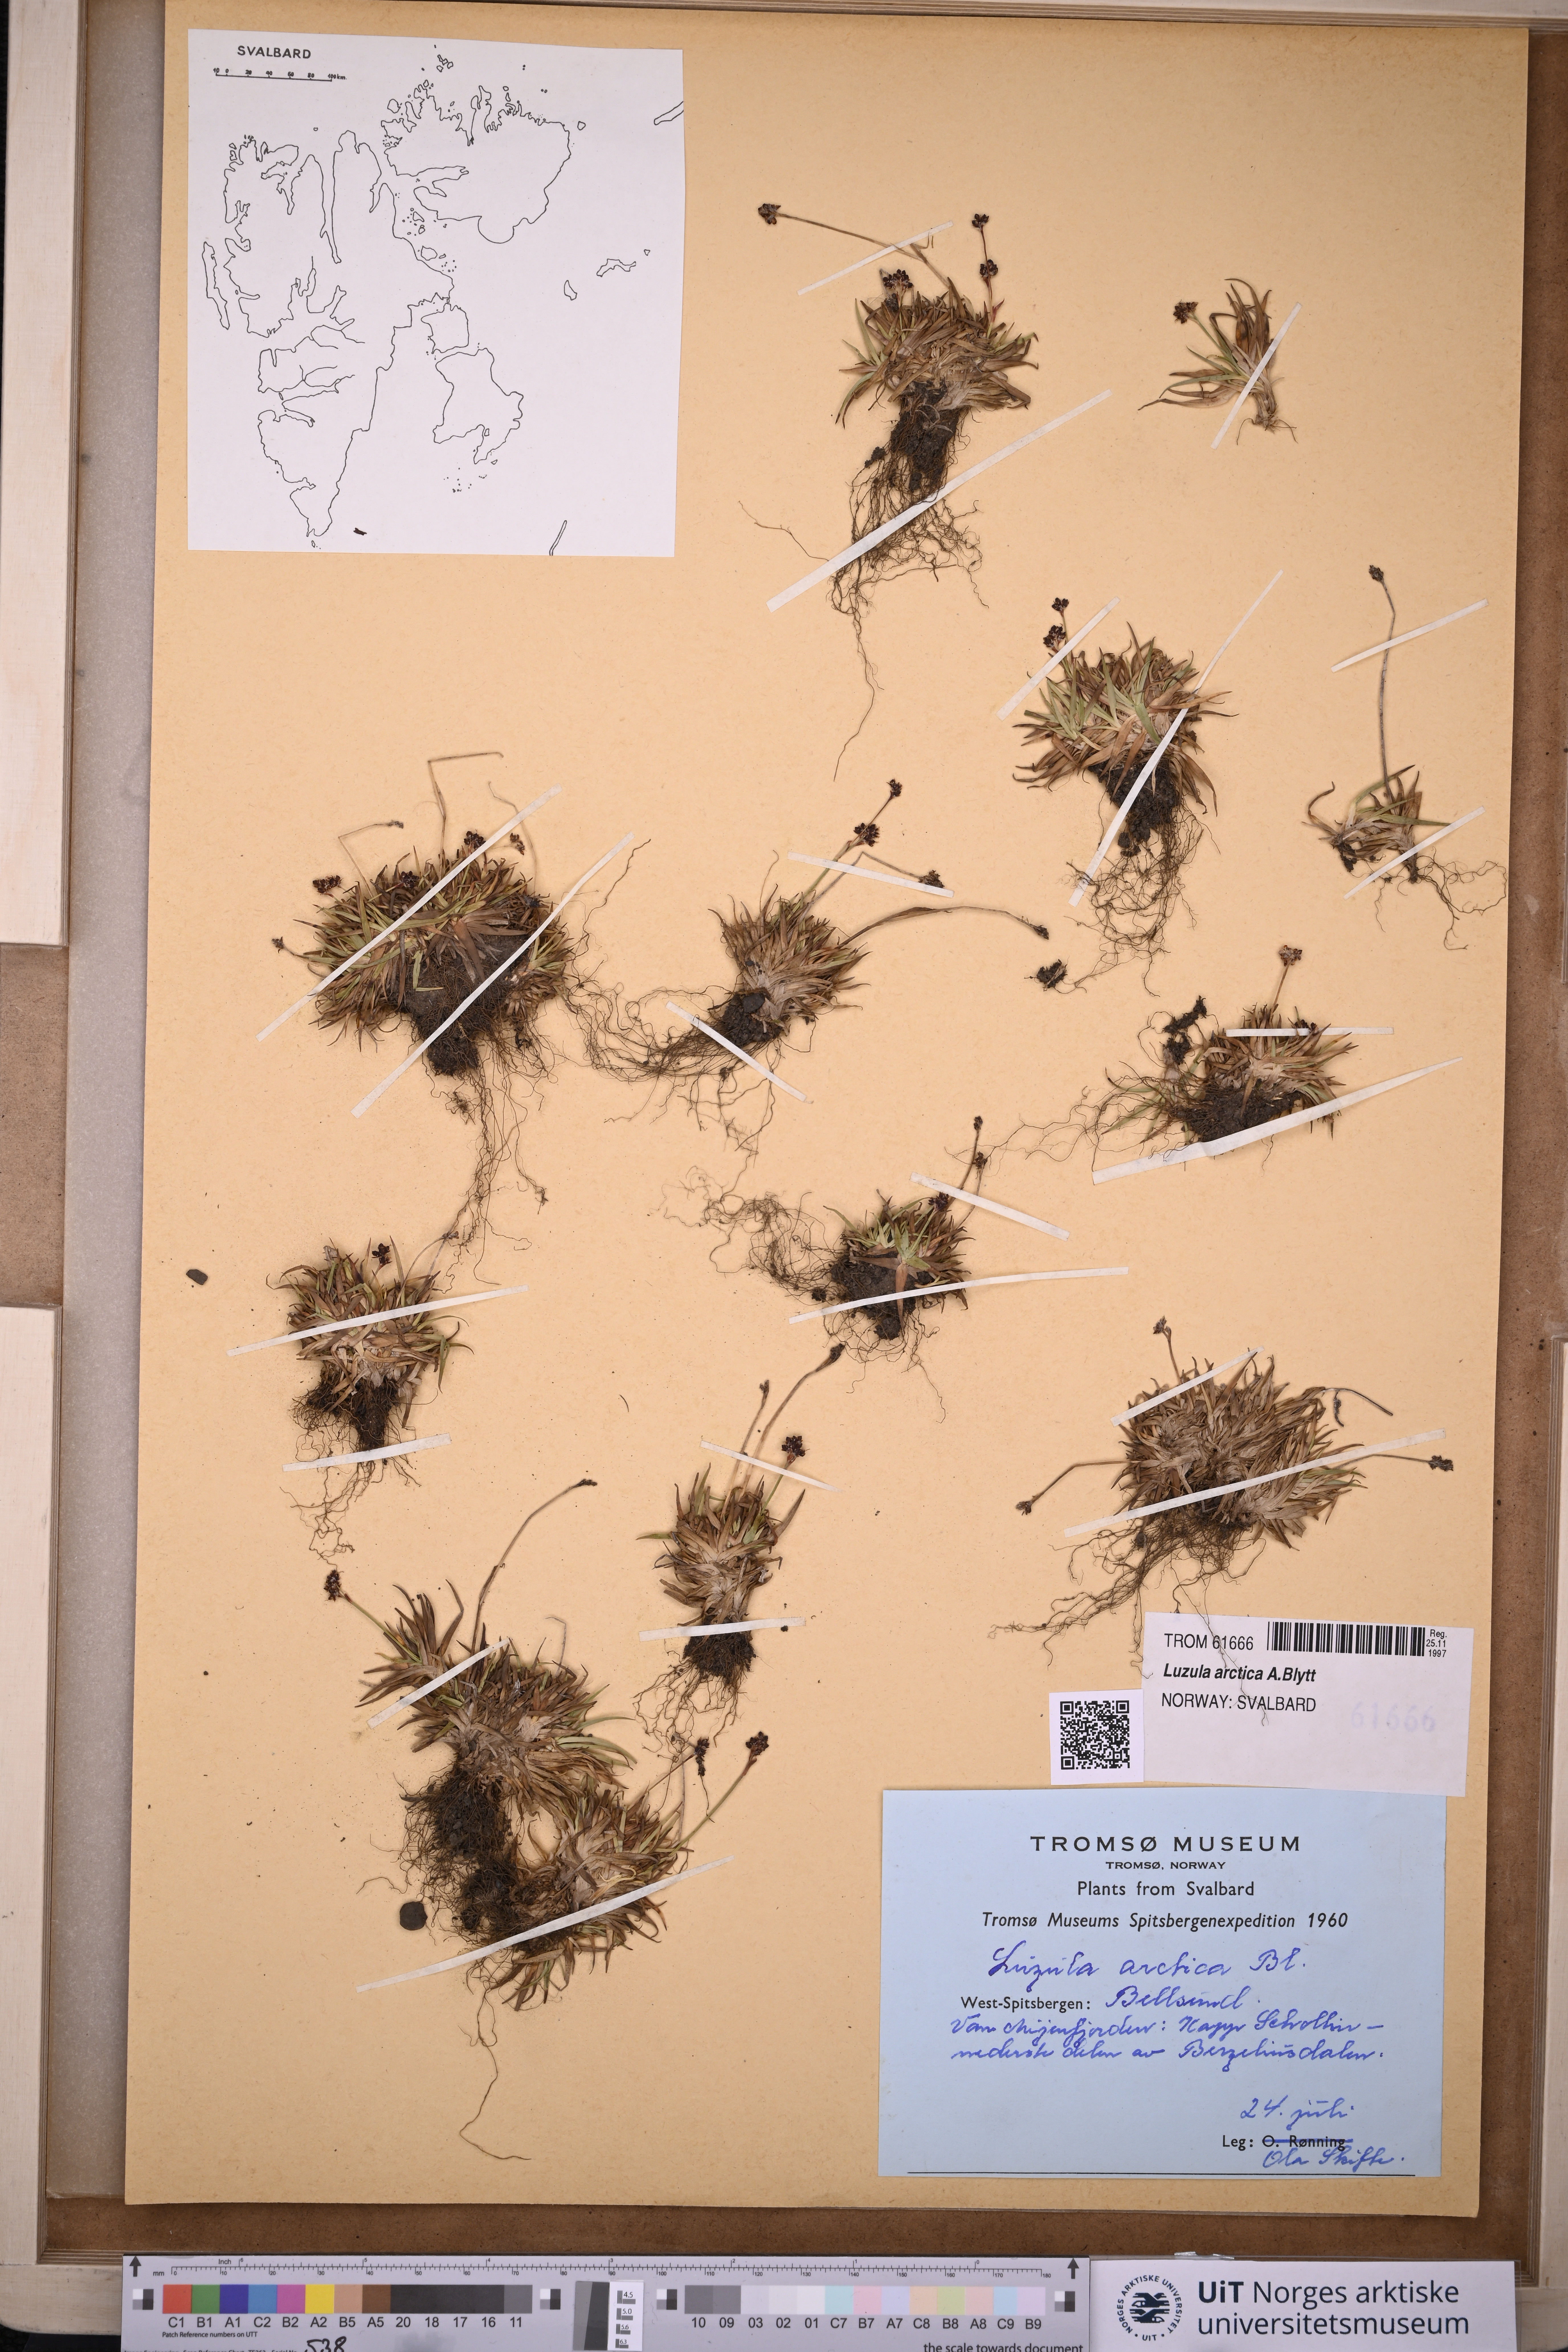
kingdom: Plantae
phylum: Tracheophyta
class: Liliopsida
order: Poales
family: Juncaceae
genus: Luzula
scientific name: Luzula nivalis
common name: Arctic woodrush
